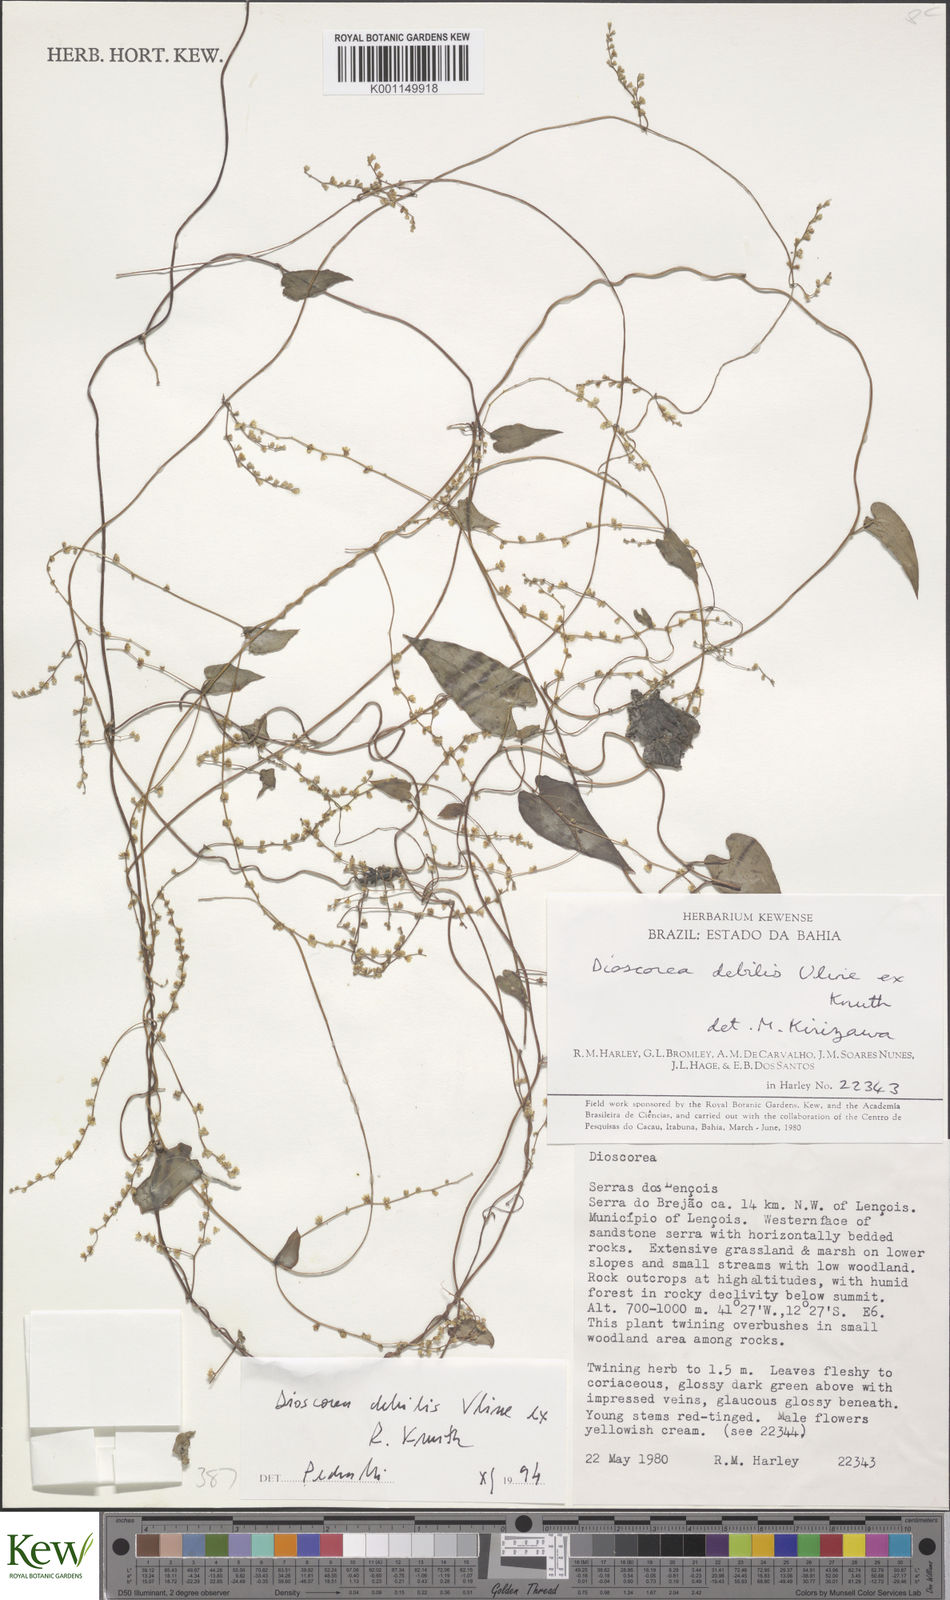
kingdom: Plantae
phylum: Tracheophyta
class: Liliopsida
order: Dioscoreales
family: Dioscoreaceae
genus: Dioscorea
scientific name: Dioscorea debilis
